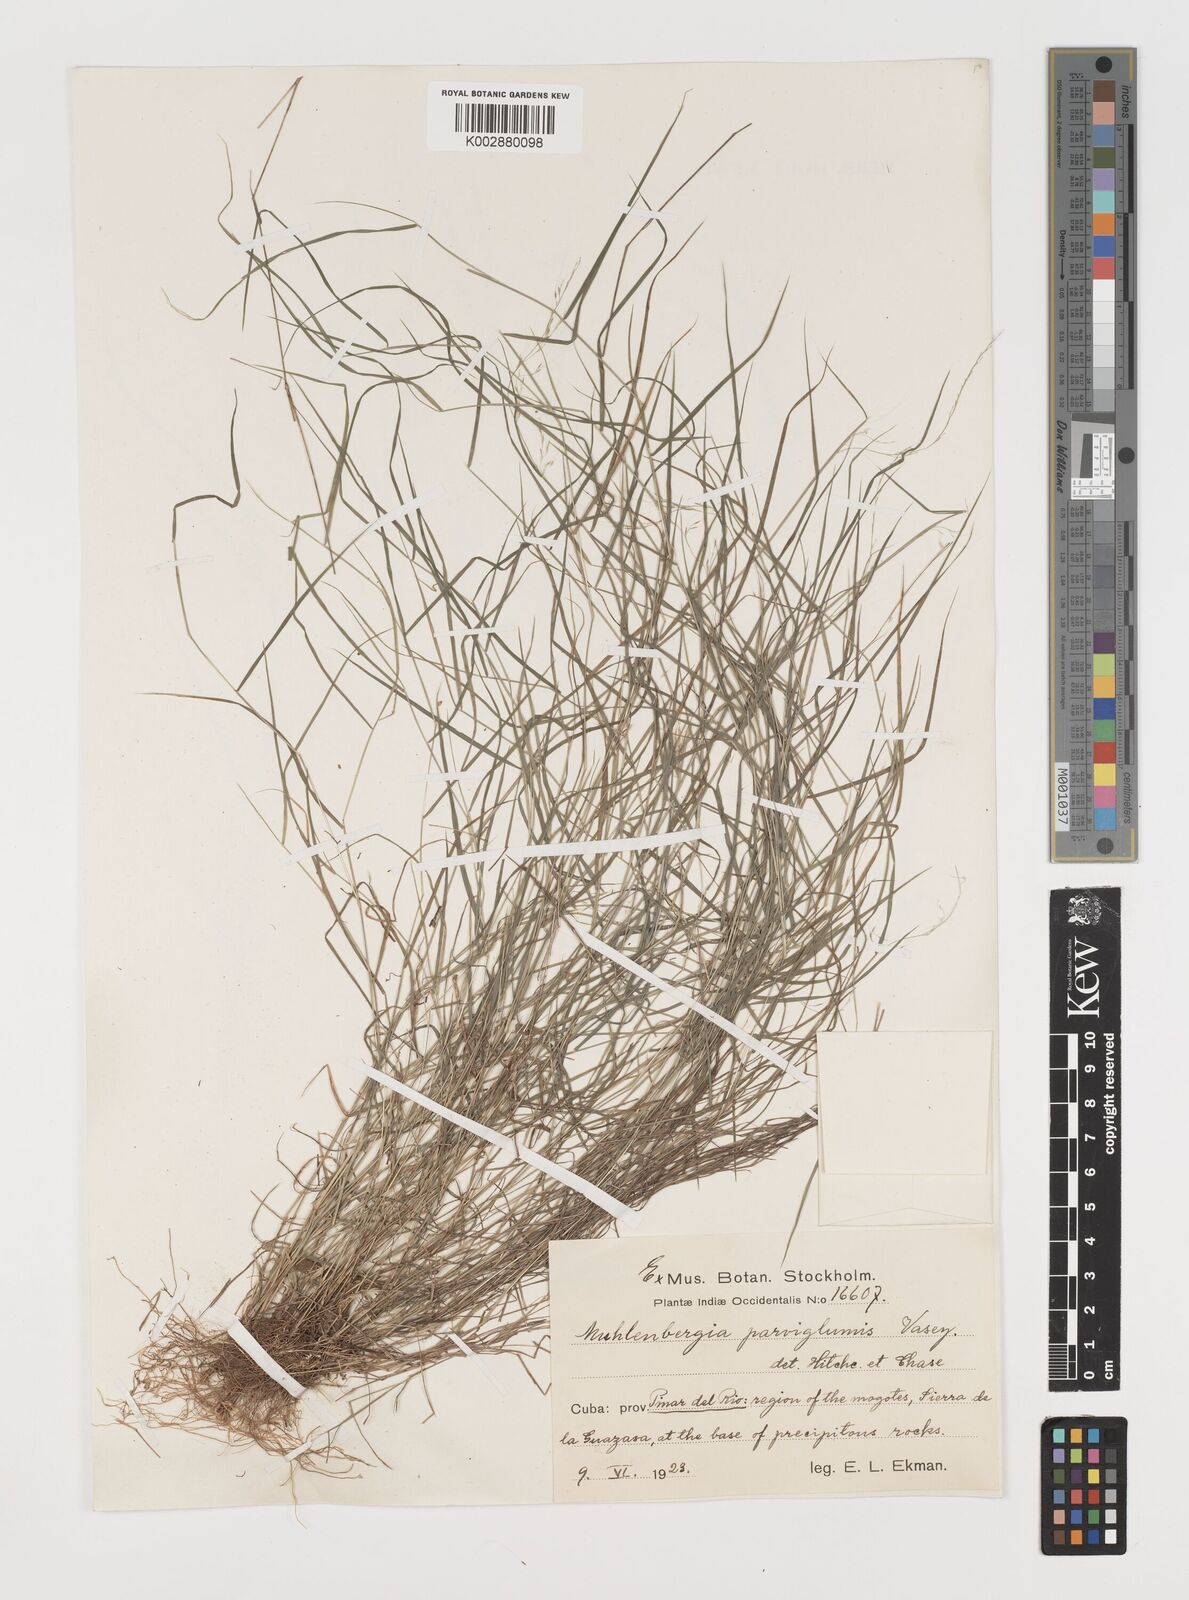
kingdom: Plantae
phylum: Tracheophyta
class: Liliopsida
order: Poales
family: Poaceae
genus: Muhlenbergia
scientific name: Muhlenbergia spiciformis
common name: Longawn muhly
